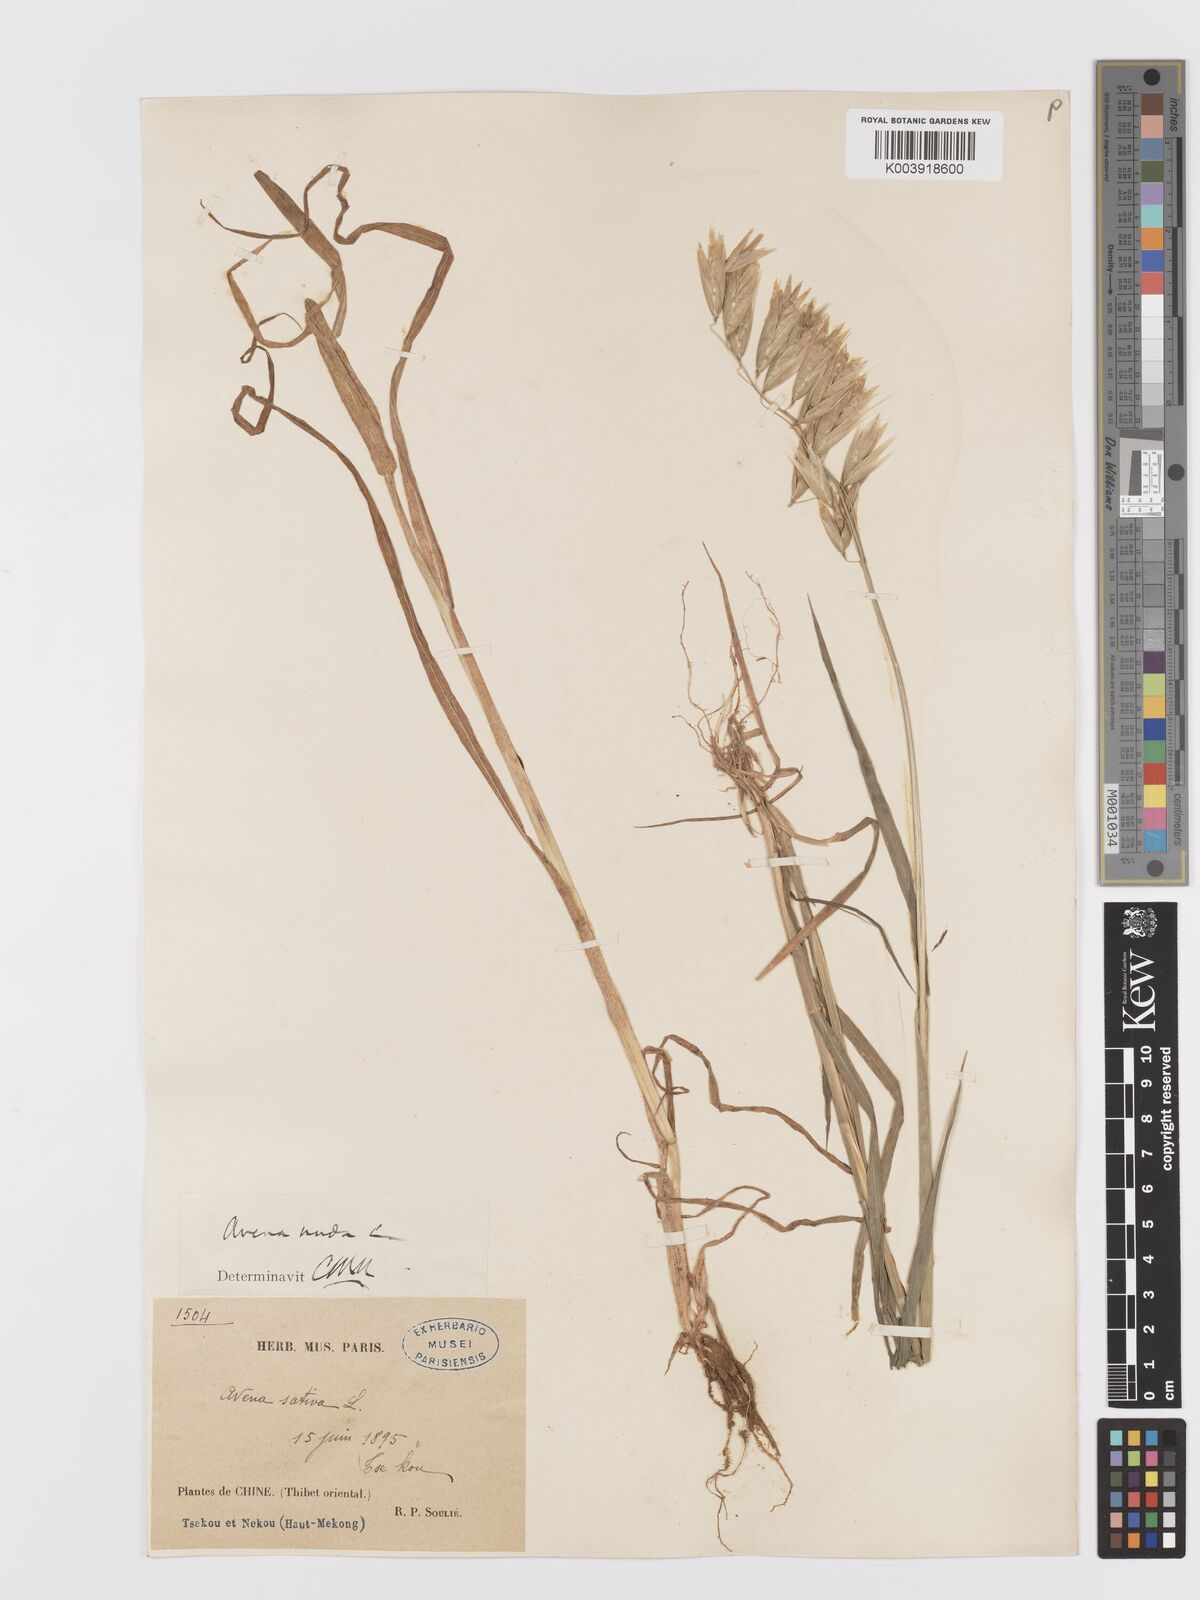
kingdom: Plantae
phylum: Tracheophyta
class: Liliopsida
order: Poales
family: Poaceae
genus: Avena
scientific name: Avena chinensis
